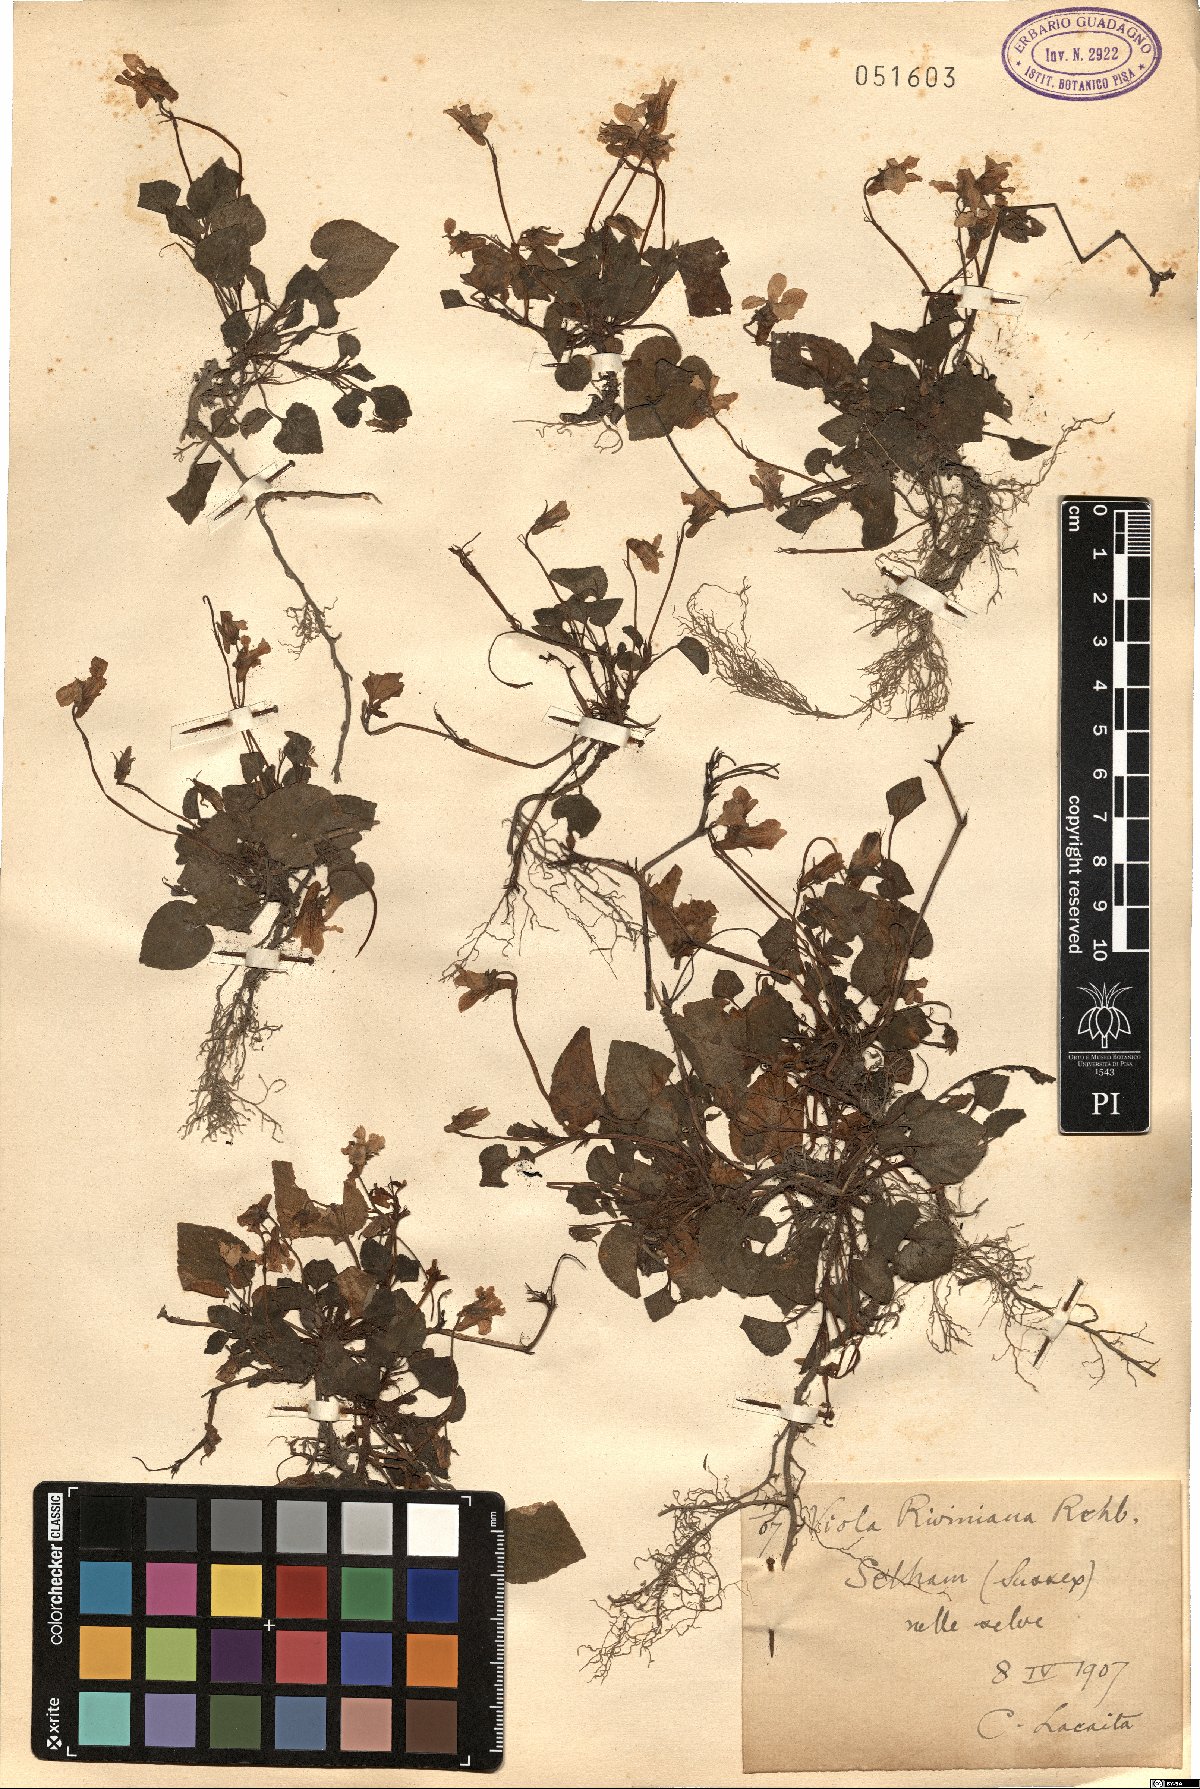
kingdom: Plantae
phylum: Tracheophyta
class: Magnoliopsida
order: Malpighiales
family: Violaceae
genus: Viola
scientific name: Viola riviniana
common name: Common dog-violet
